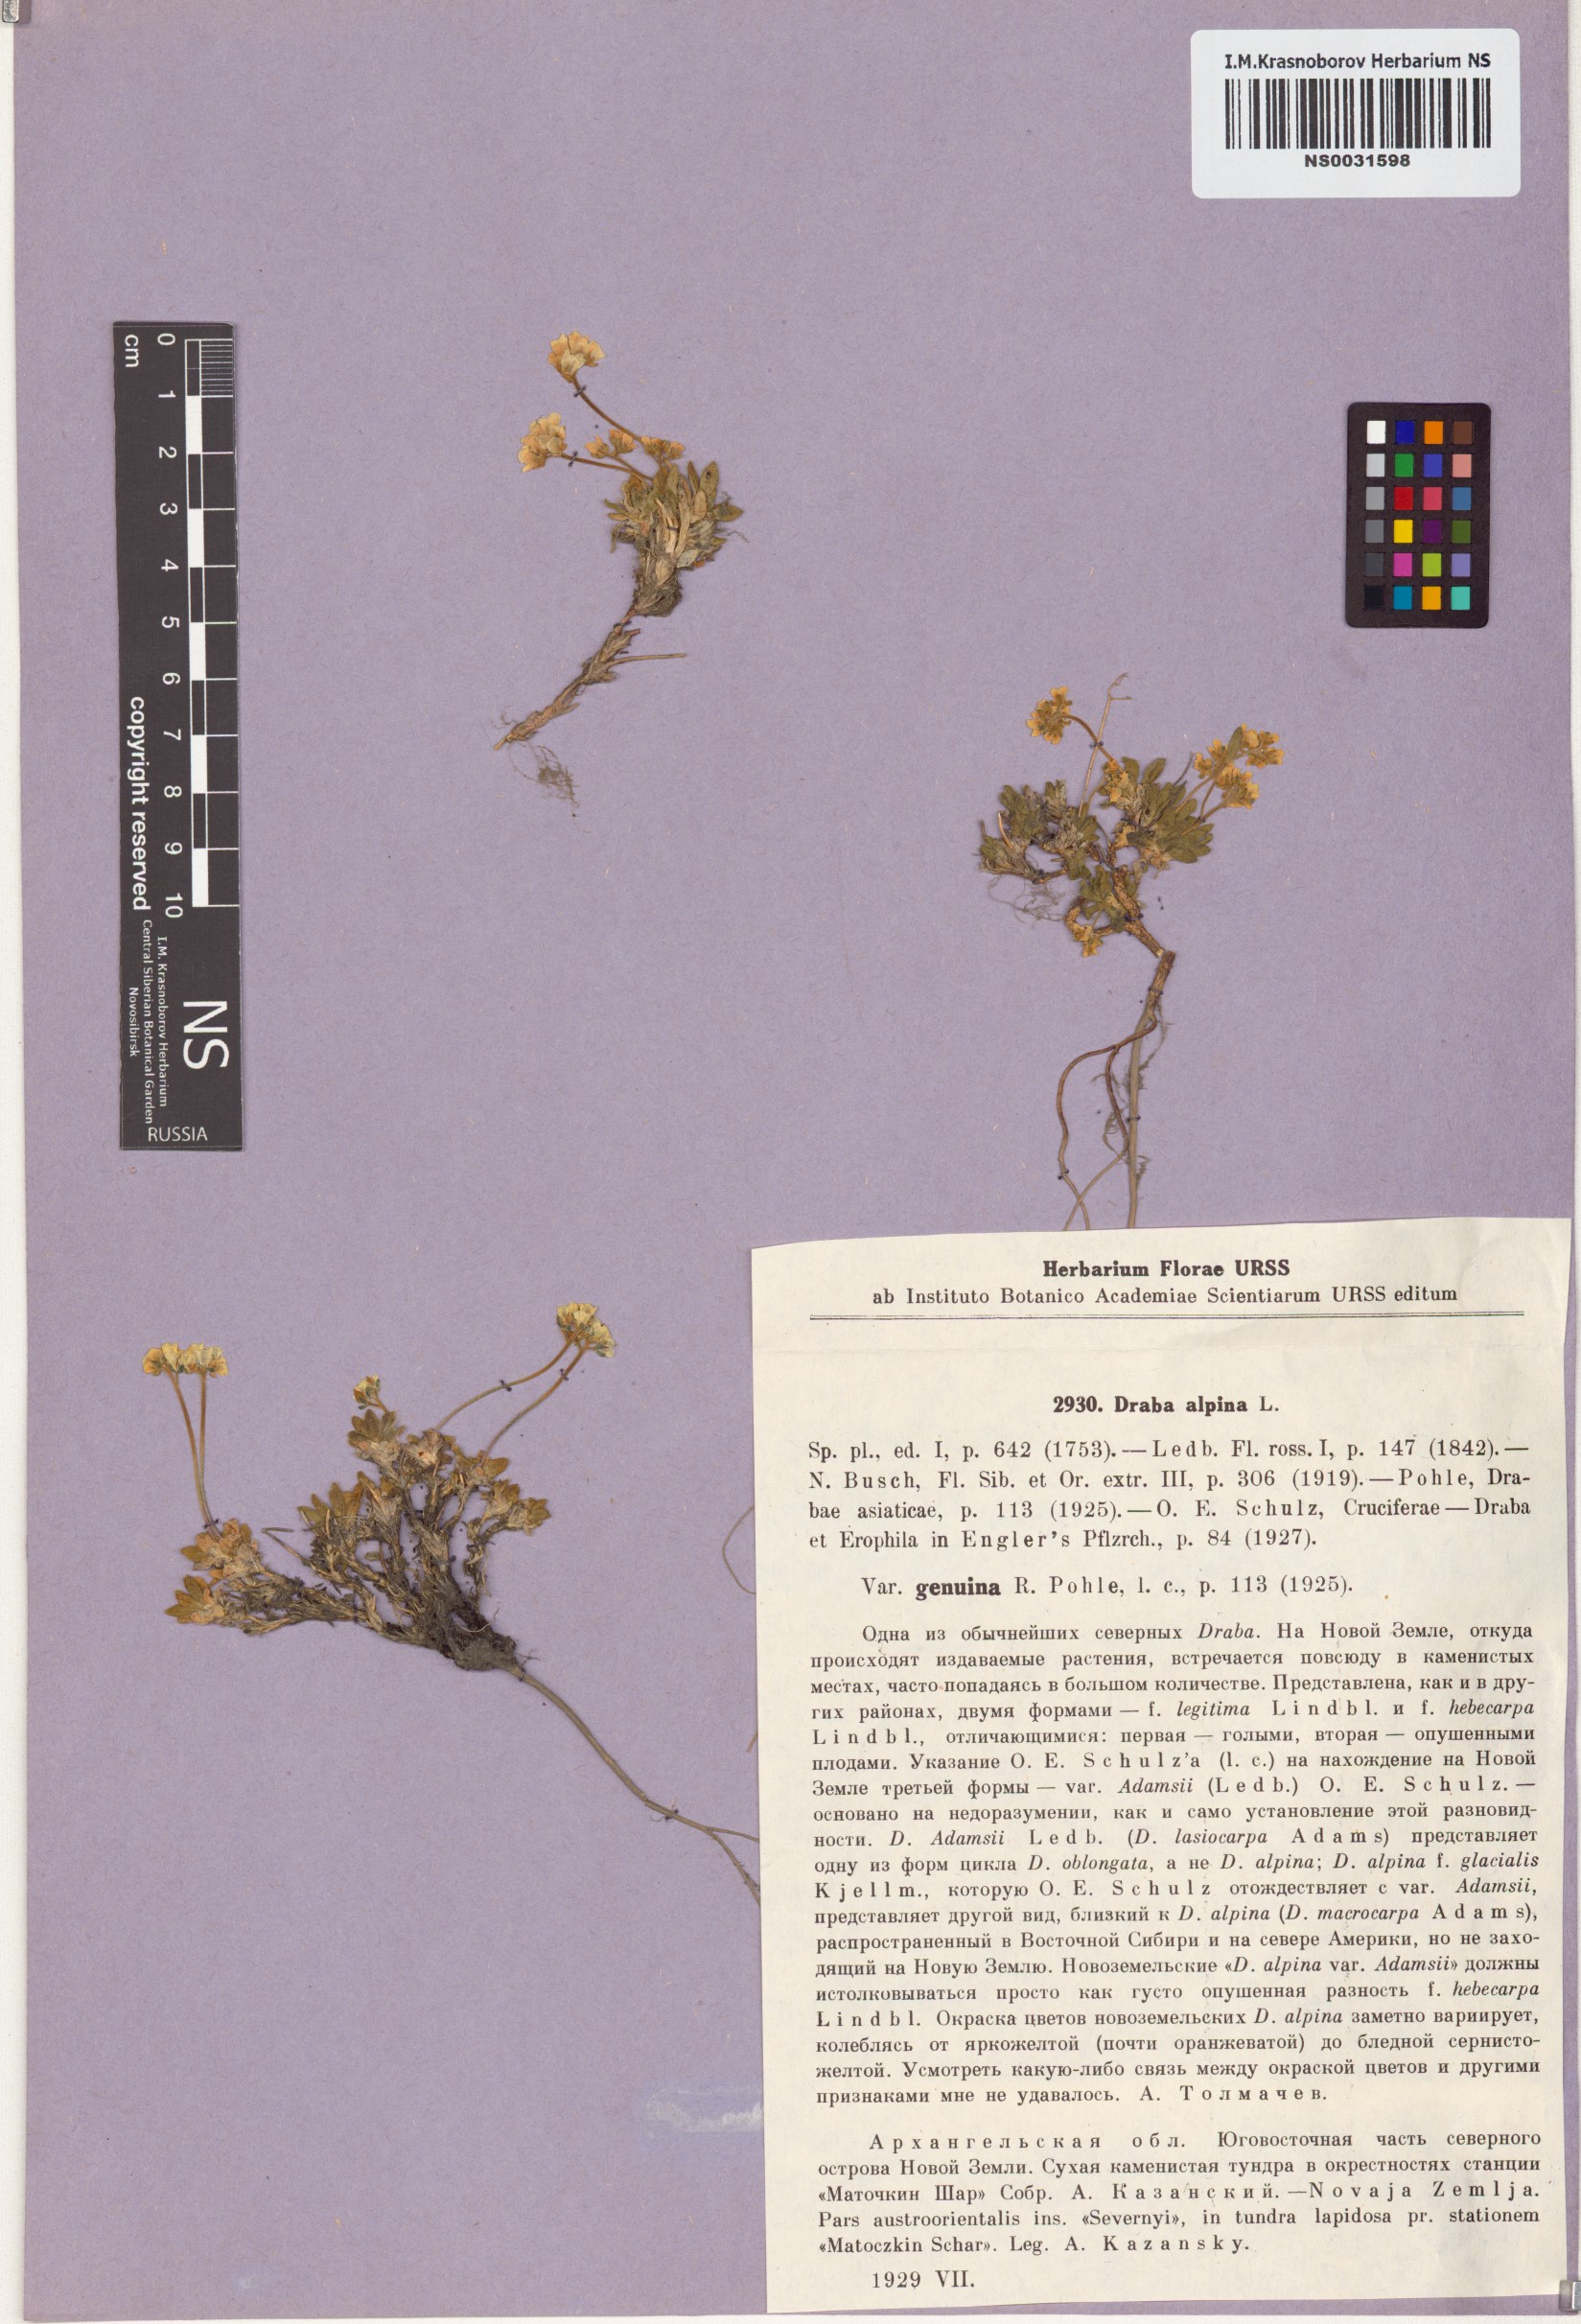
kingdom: Plantae
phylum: Tracheophyta
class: Magnoliopsida
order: Brassicales
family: Brassicaceae
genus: Draba
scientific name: Draba alpina
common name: Alpine draba
